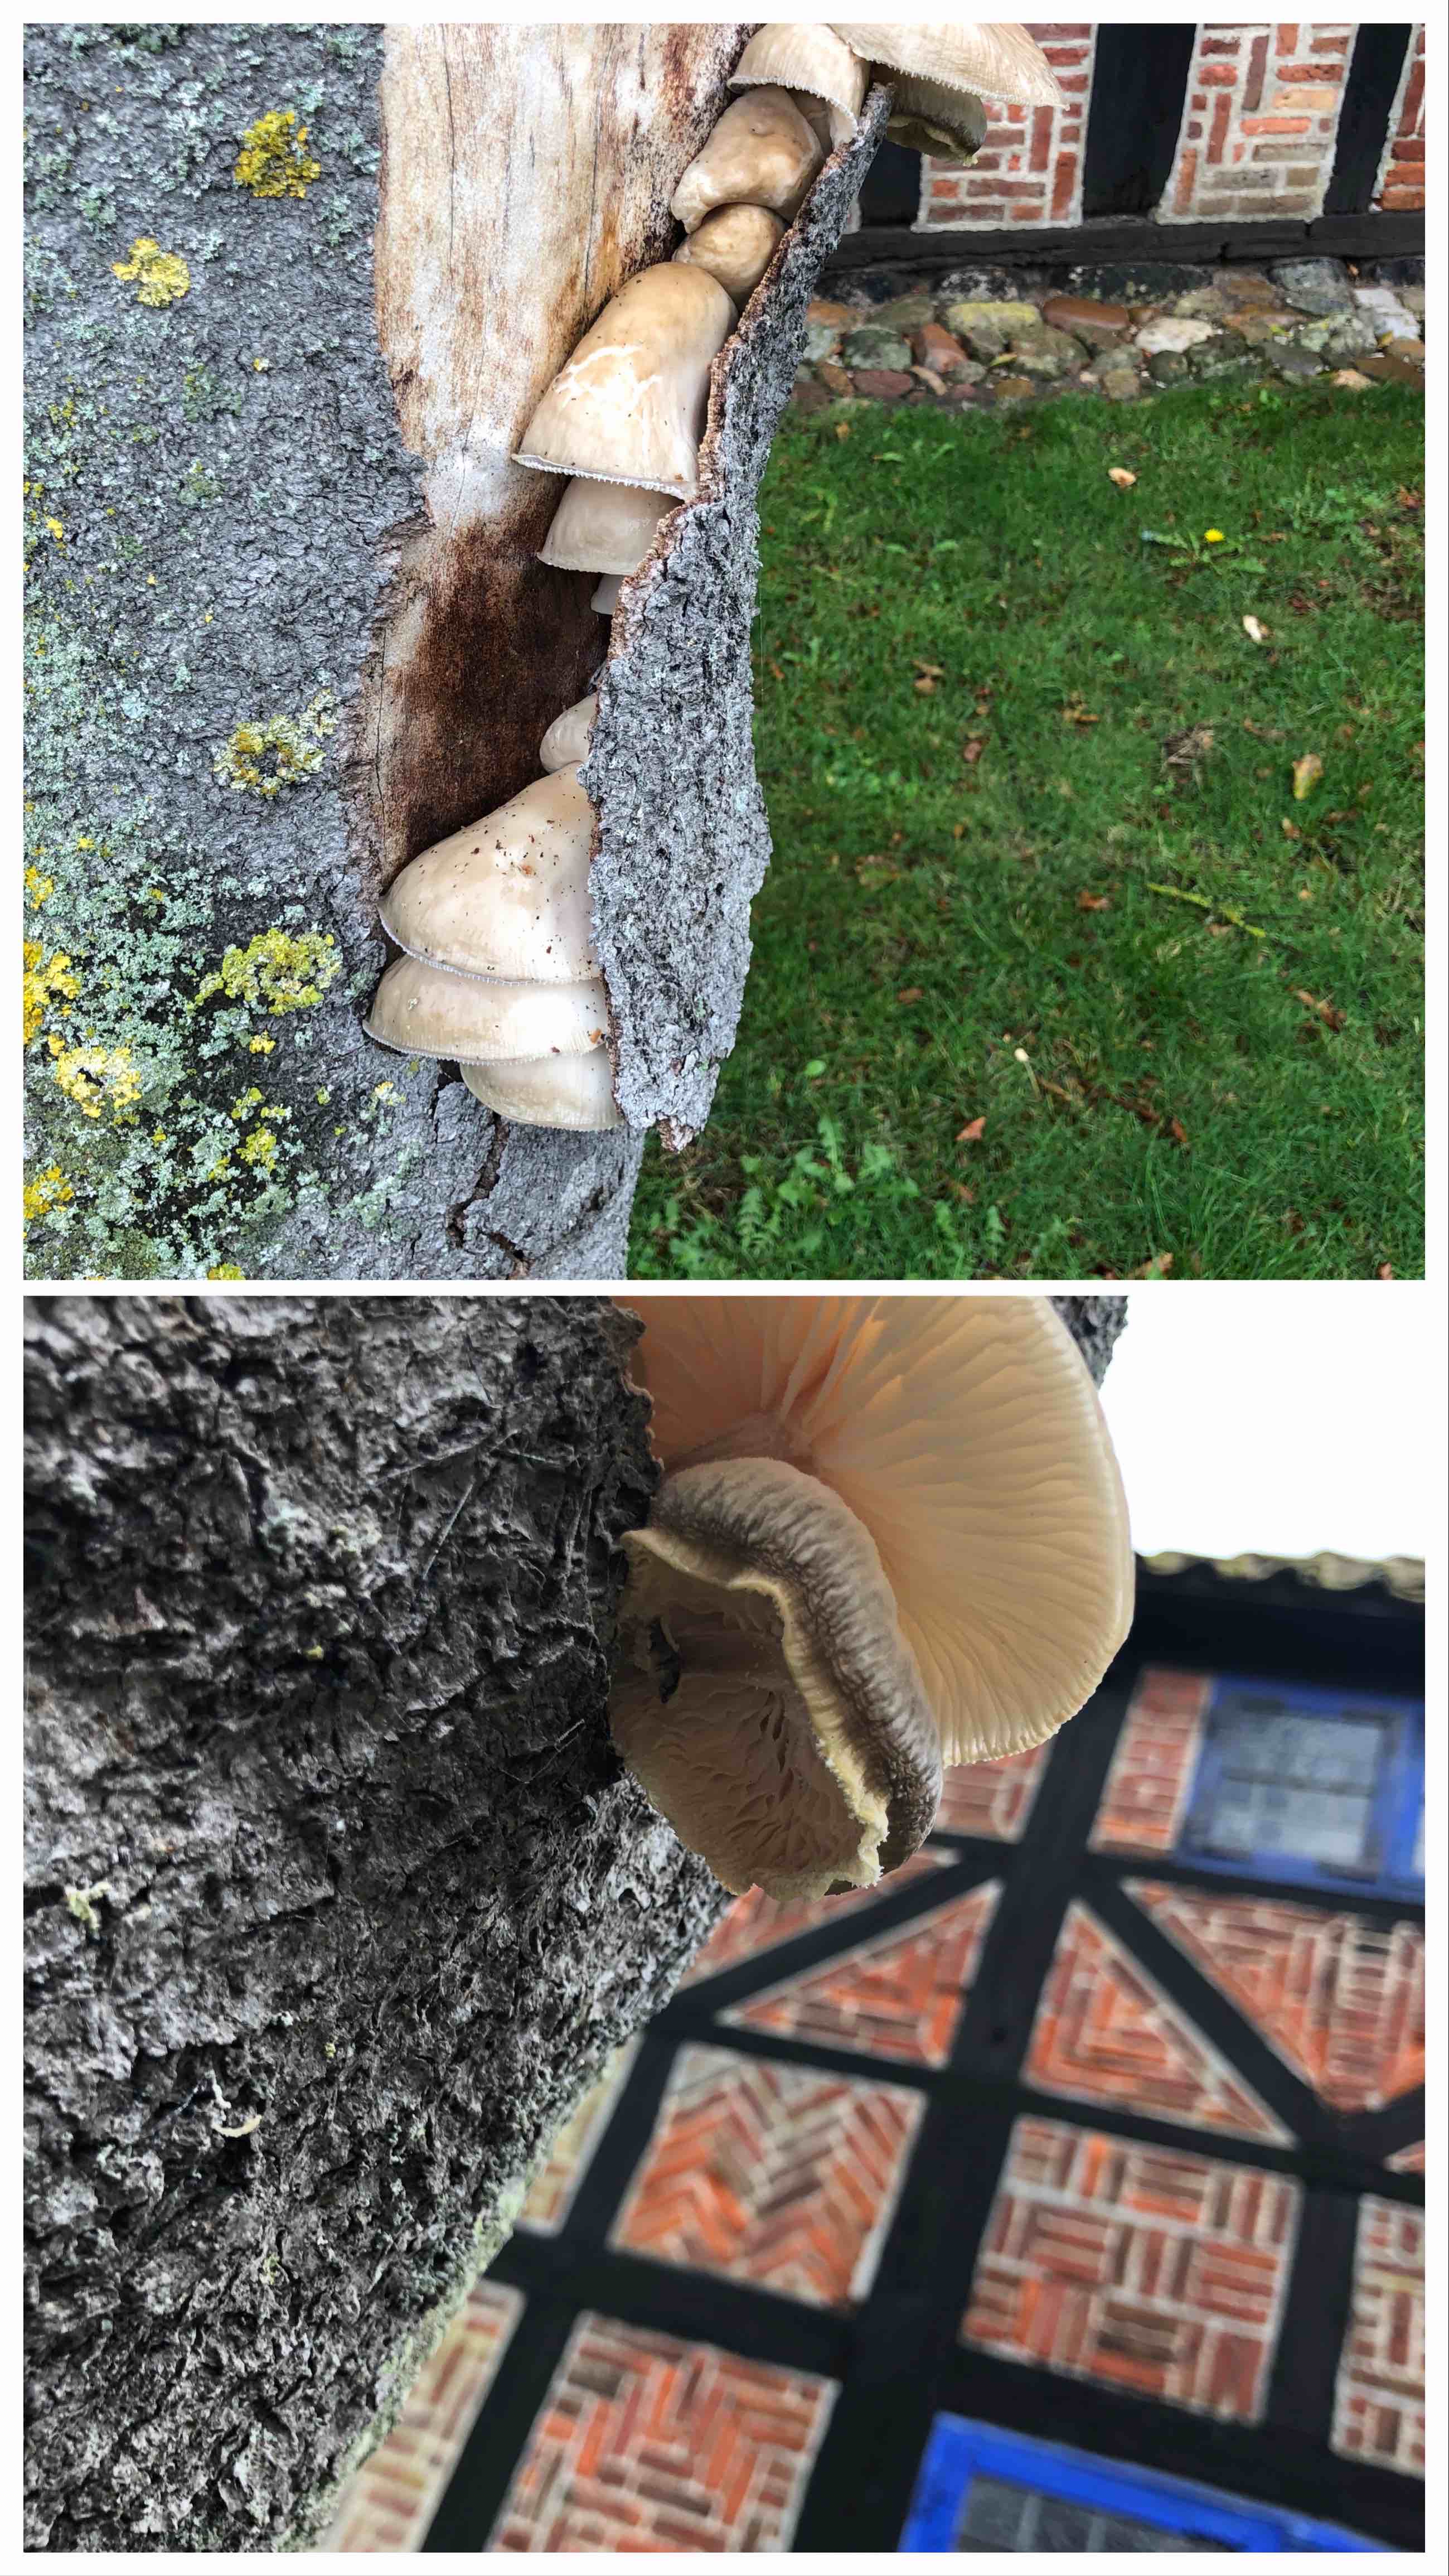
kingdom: Fungi
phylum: Basidiomycota
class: Agaricomycetes
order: Agaricales
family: Physalacriaceae
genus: Mucidula
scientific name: Mucidula mucida
